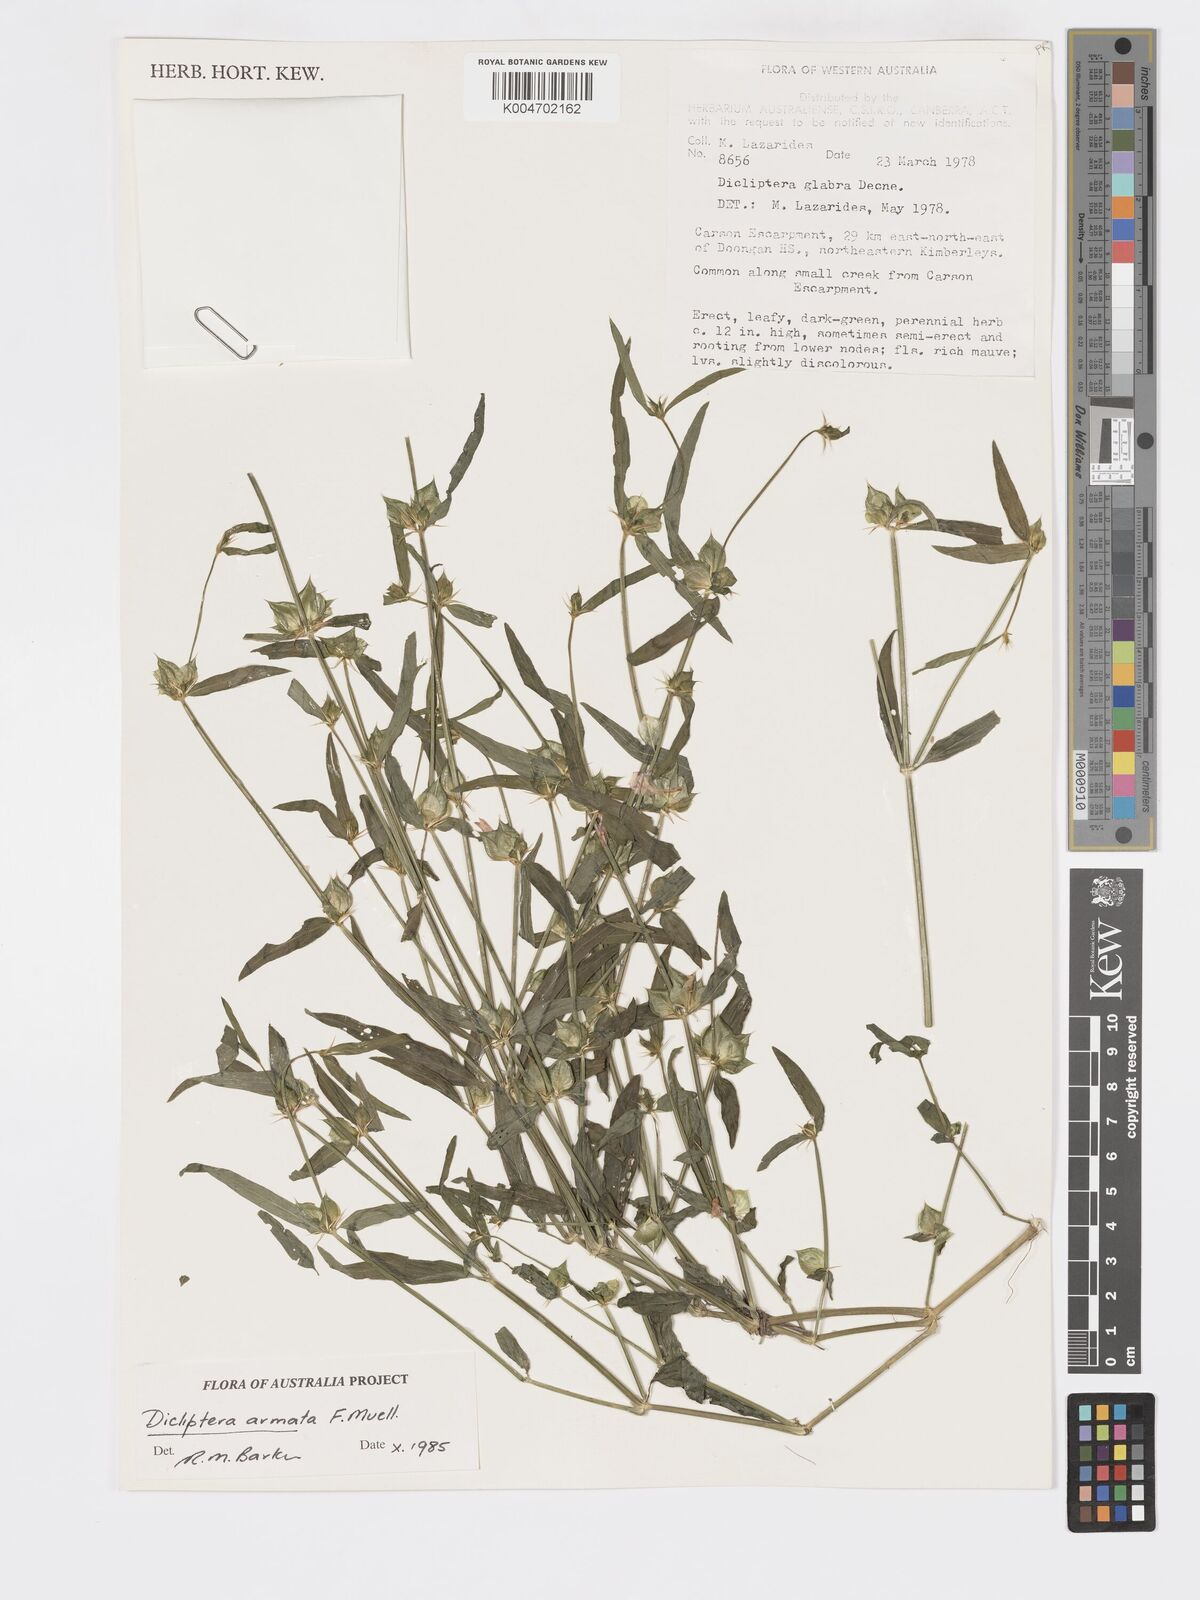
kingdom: Plantae
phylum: Tracheophyta
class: Magnoliopsida
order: Lamiales
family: Acanthaceae
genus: Dicliptera
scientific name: Dicliptera armata
